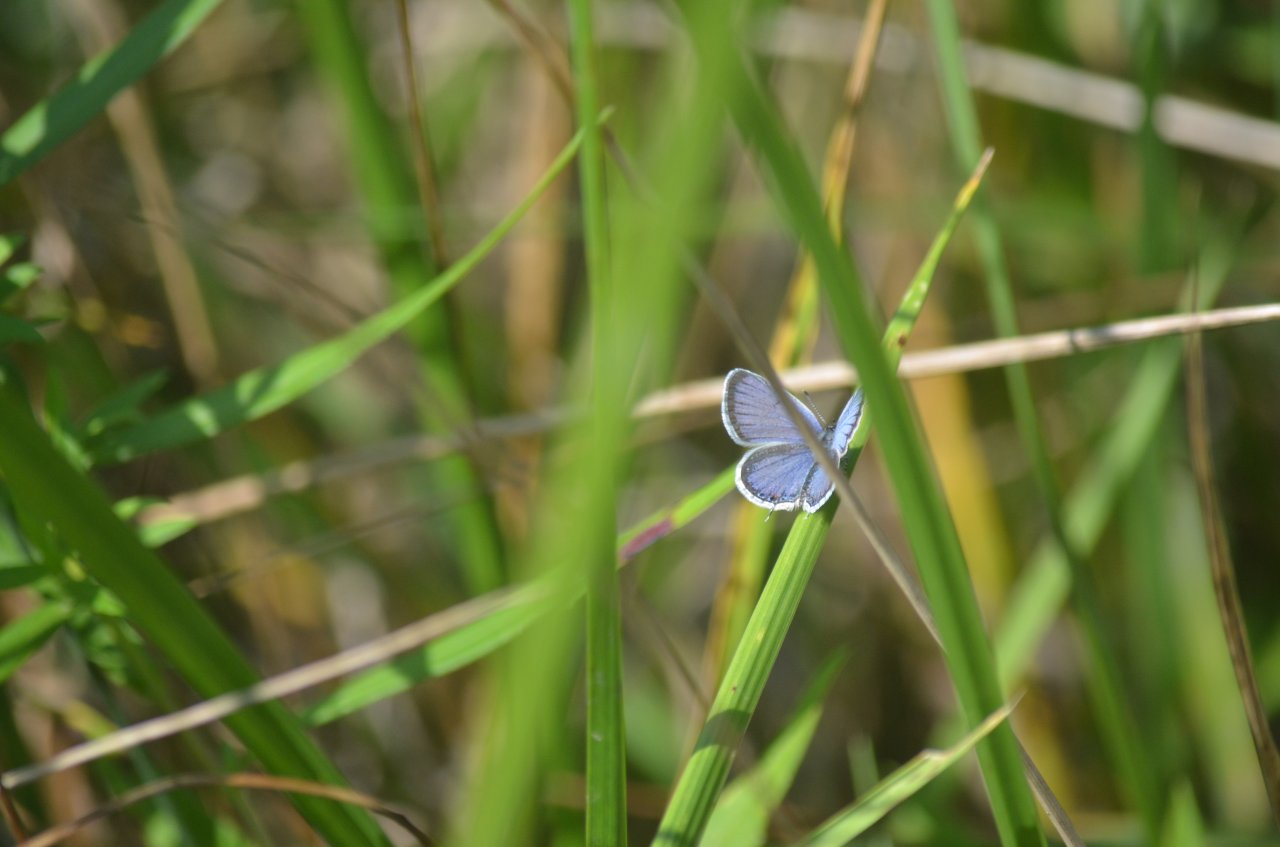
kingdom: Animalia
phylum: Arthropoda
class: Insecta
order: Lepidoptera
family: Lycaenidae
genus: Elkalyce
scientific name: Elkalyce comyntas
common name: Eastern Tailed-Blue
